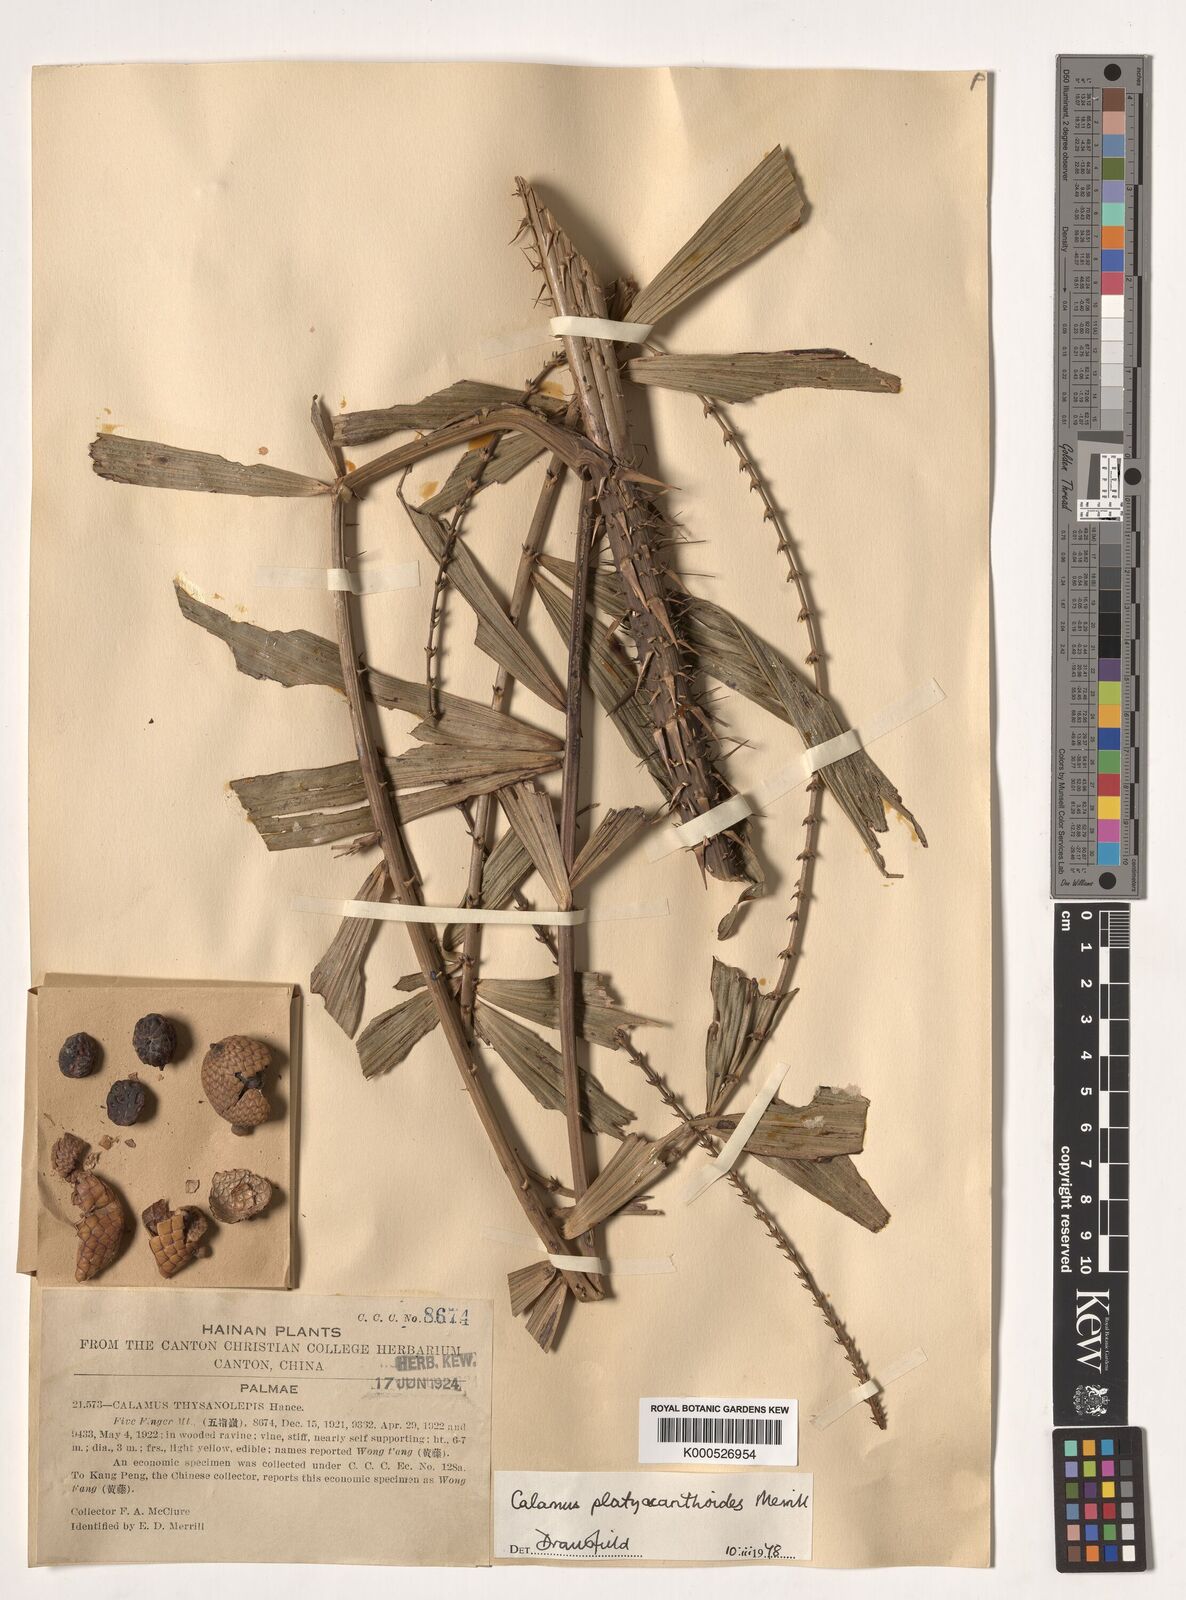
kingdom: Plantae
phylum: Tracheophyta
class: Liliopsida
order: Arecales
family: Arecaceae
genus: Calamus
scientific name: Calamus inermis
